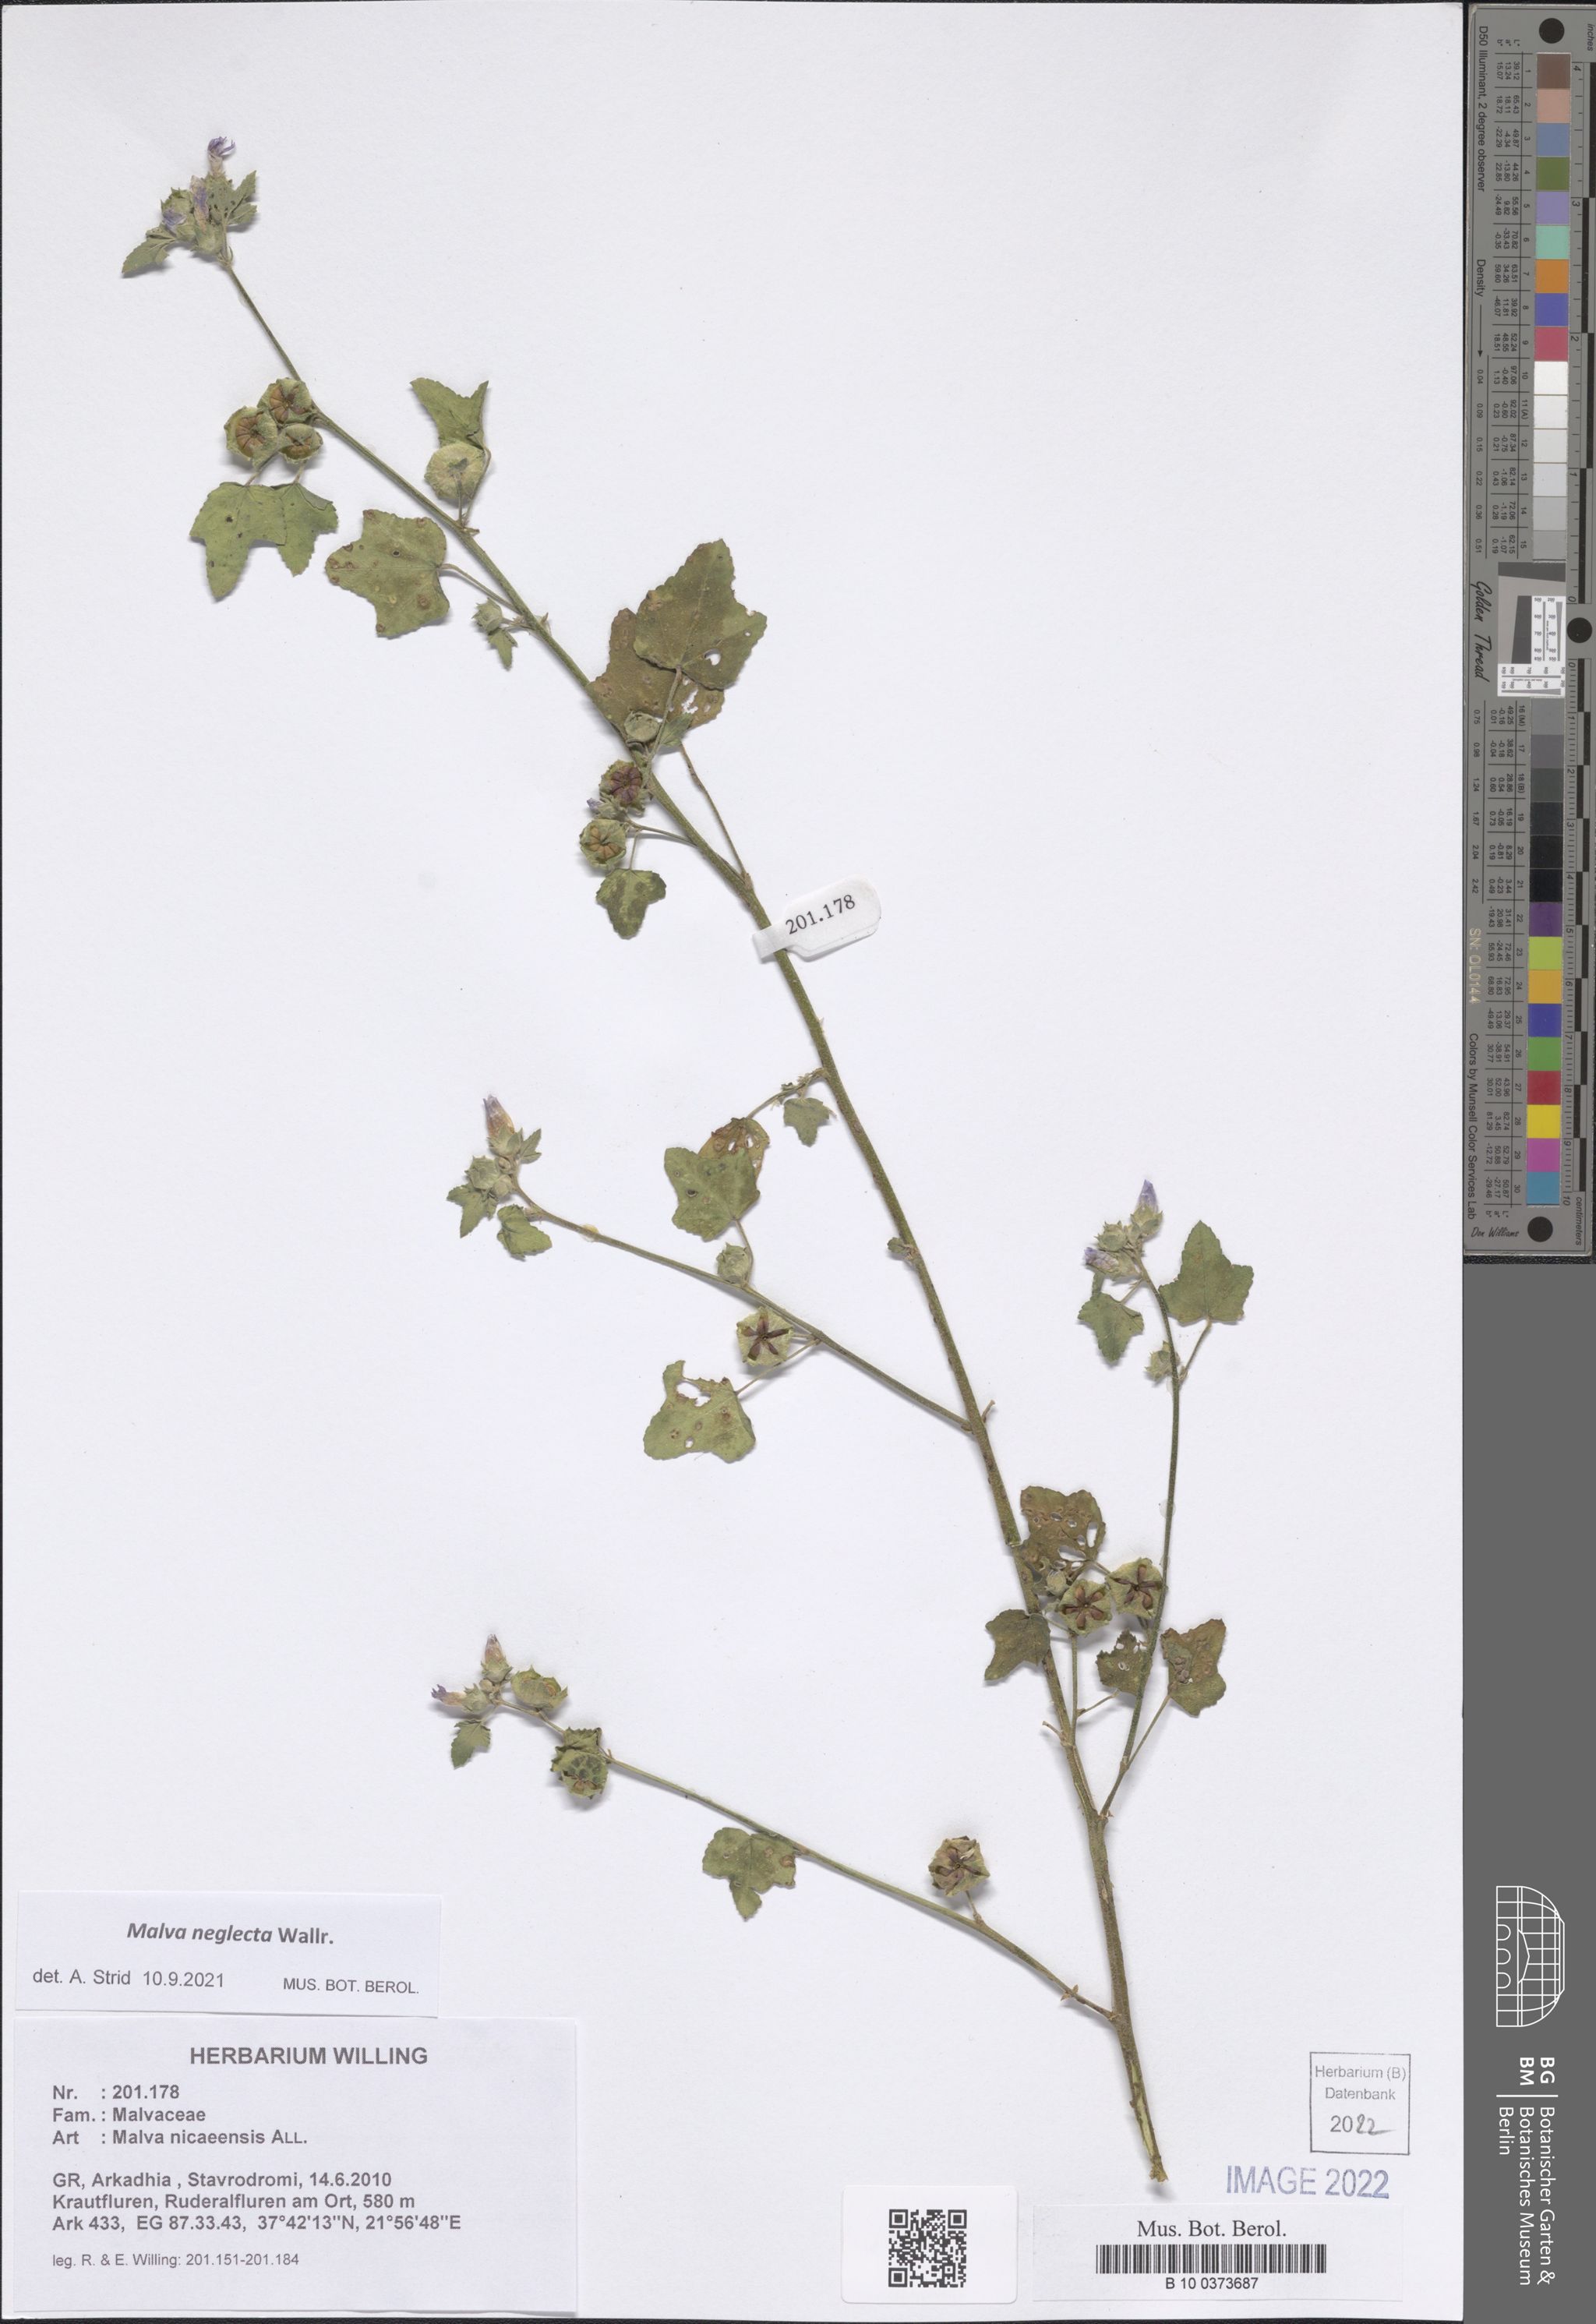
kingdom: Plantae
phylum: Tracheophyta
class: Magnoliopsida
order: Malvales
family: Malvaceae
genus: Malva
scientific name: Malva neglecta
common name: Common mallow
